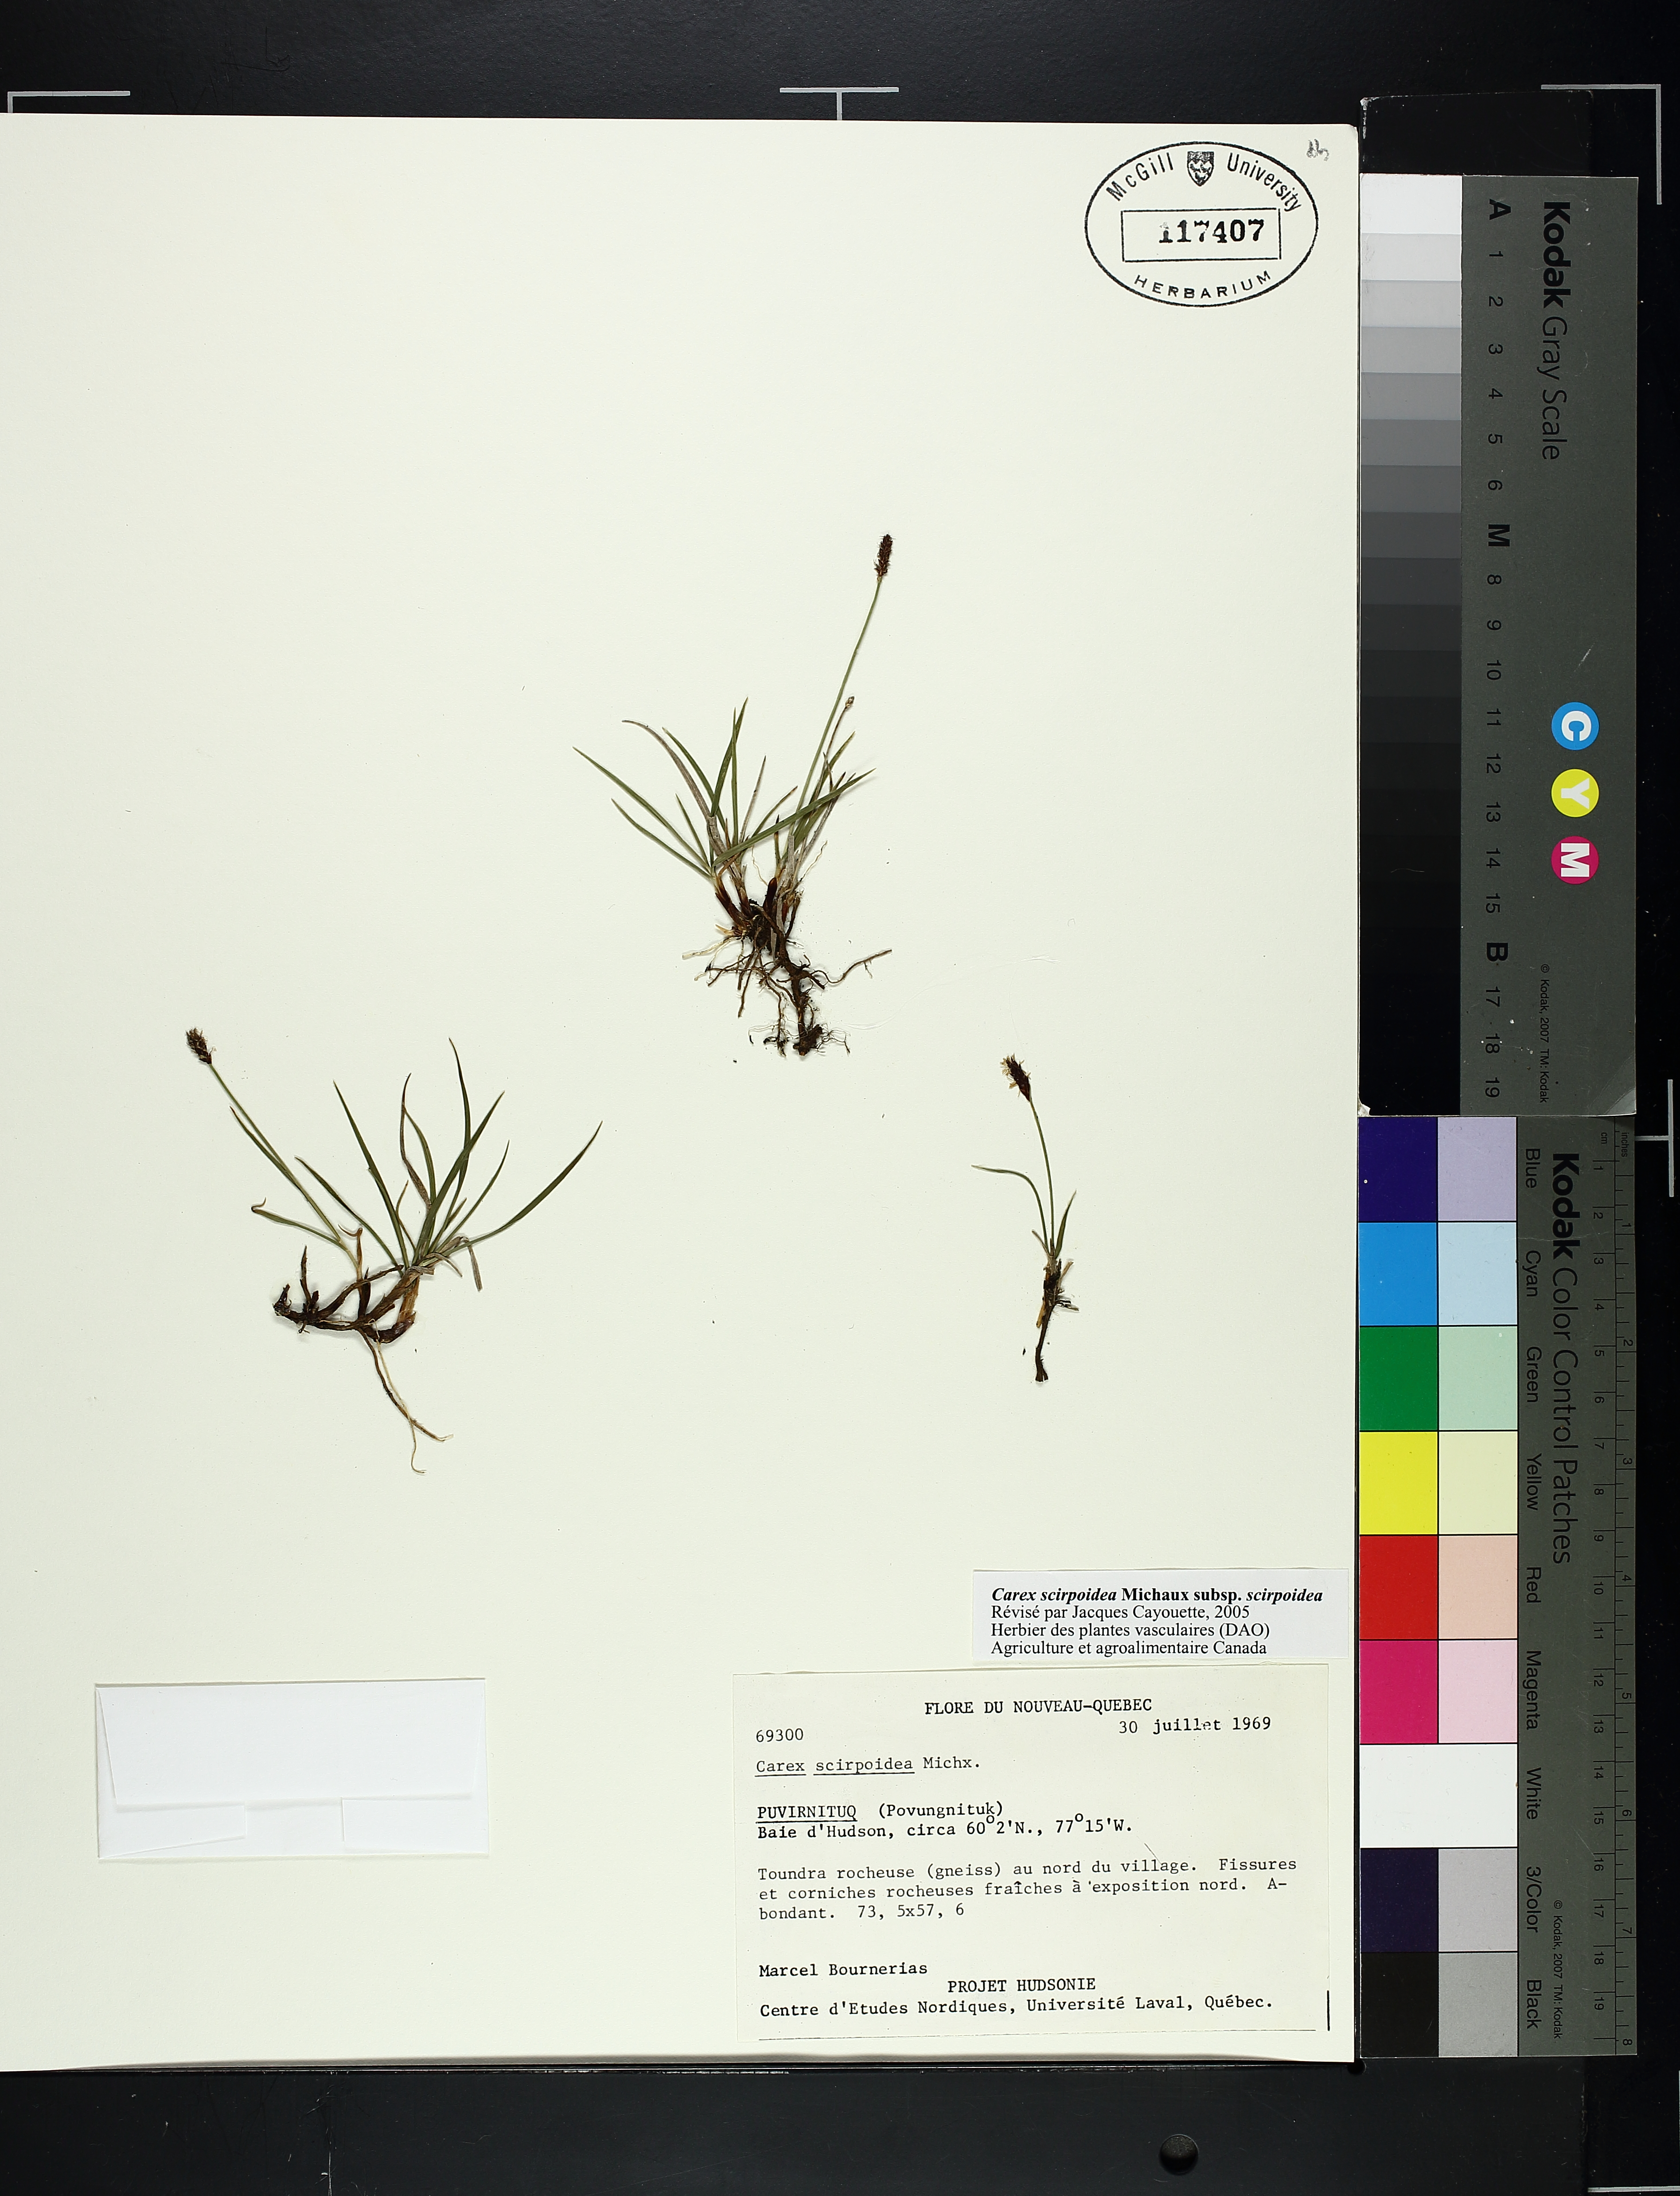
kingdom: Plantae
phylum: Tracheophyta
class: Liliopsida
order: Poales
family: Cyperaceae
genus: Carex
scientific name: Carex scirpoidea
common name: Canada single-spike sedge
